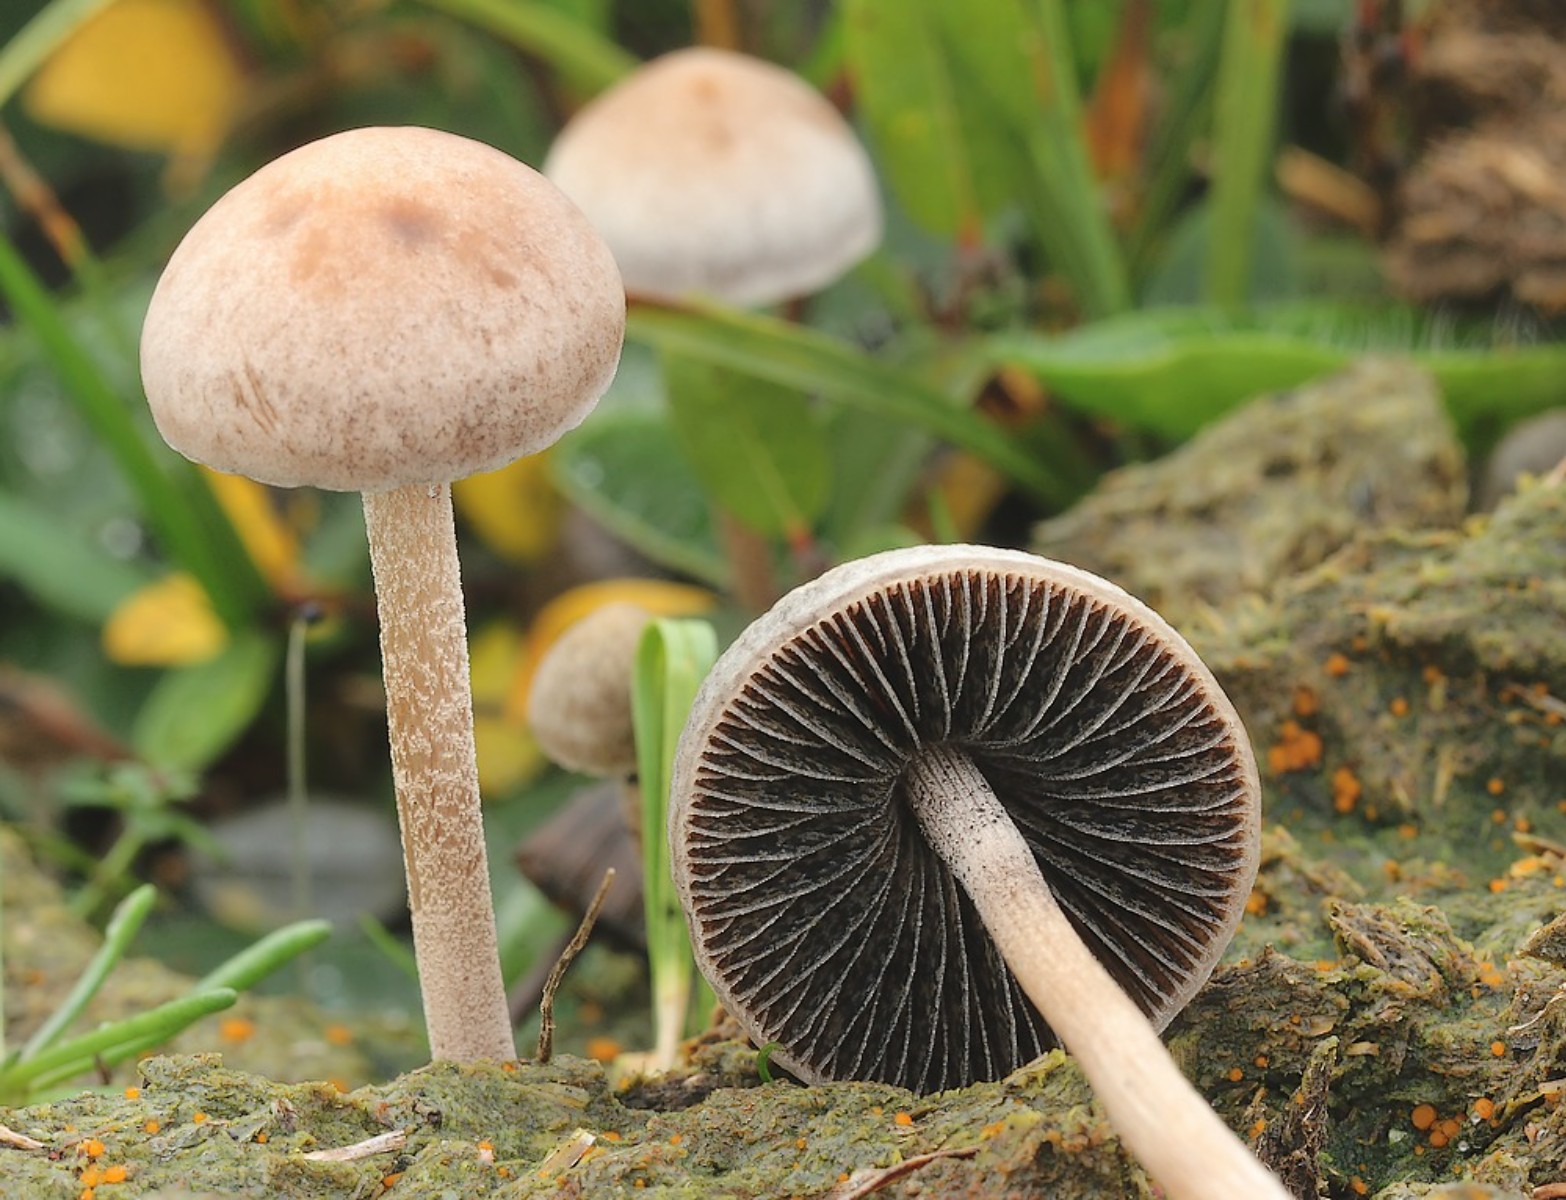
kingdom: Fungi
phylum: Basidiomycota
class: Agaricomycetes
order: Agaricales
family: Bolbitiaceae
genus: Panaeolus
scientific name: Panaeolus subfirmus
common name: fælled-glanshat
